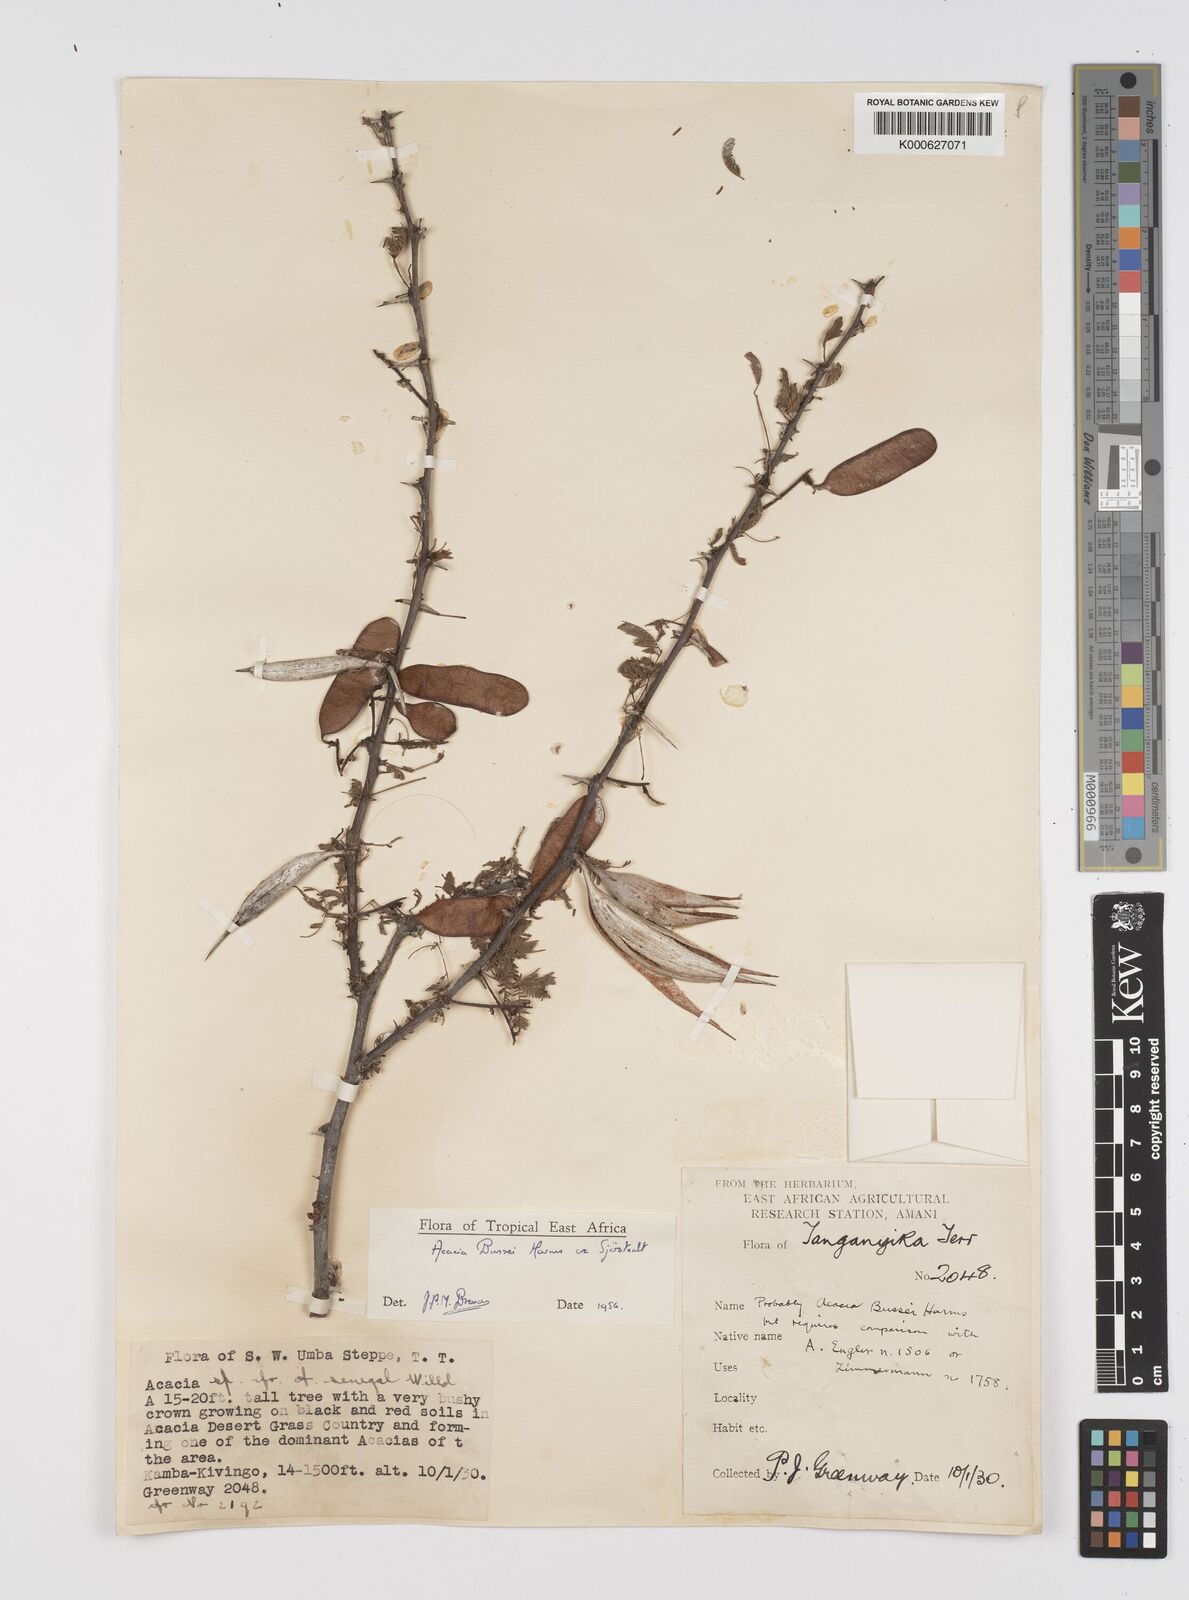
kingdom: Plantae
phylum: Tracheophyta
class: Magnoliopsida
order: Fabales
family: Fabaceae
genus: Vachellia
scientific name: Vachellia bussei
